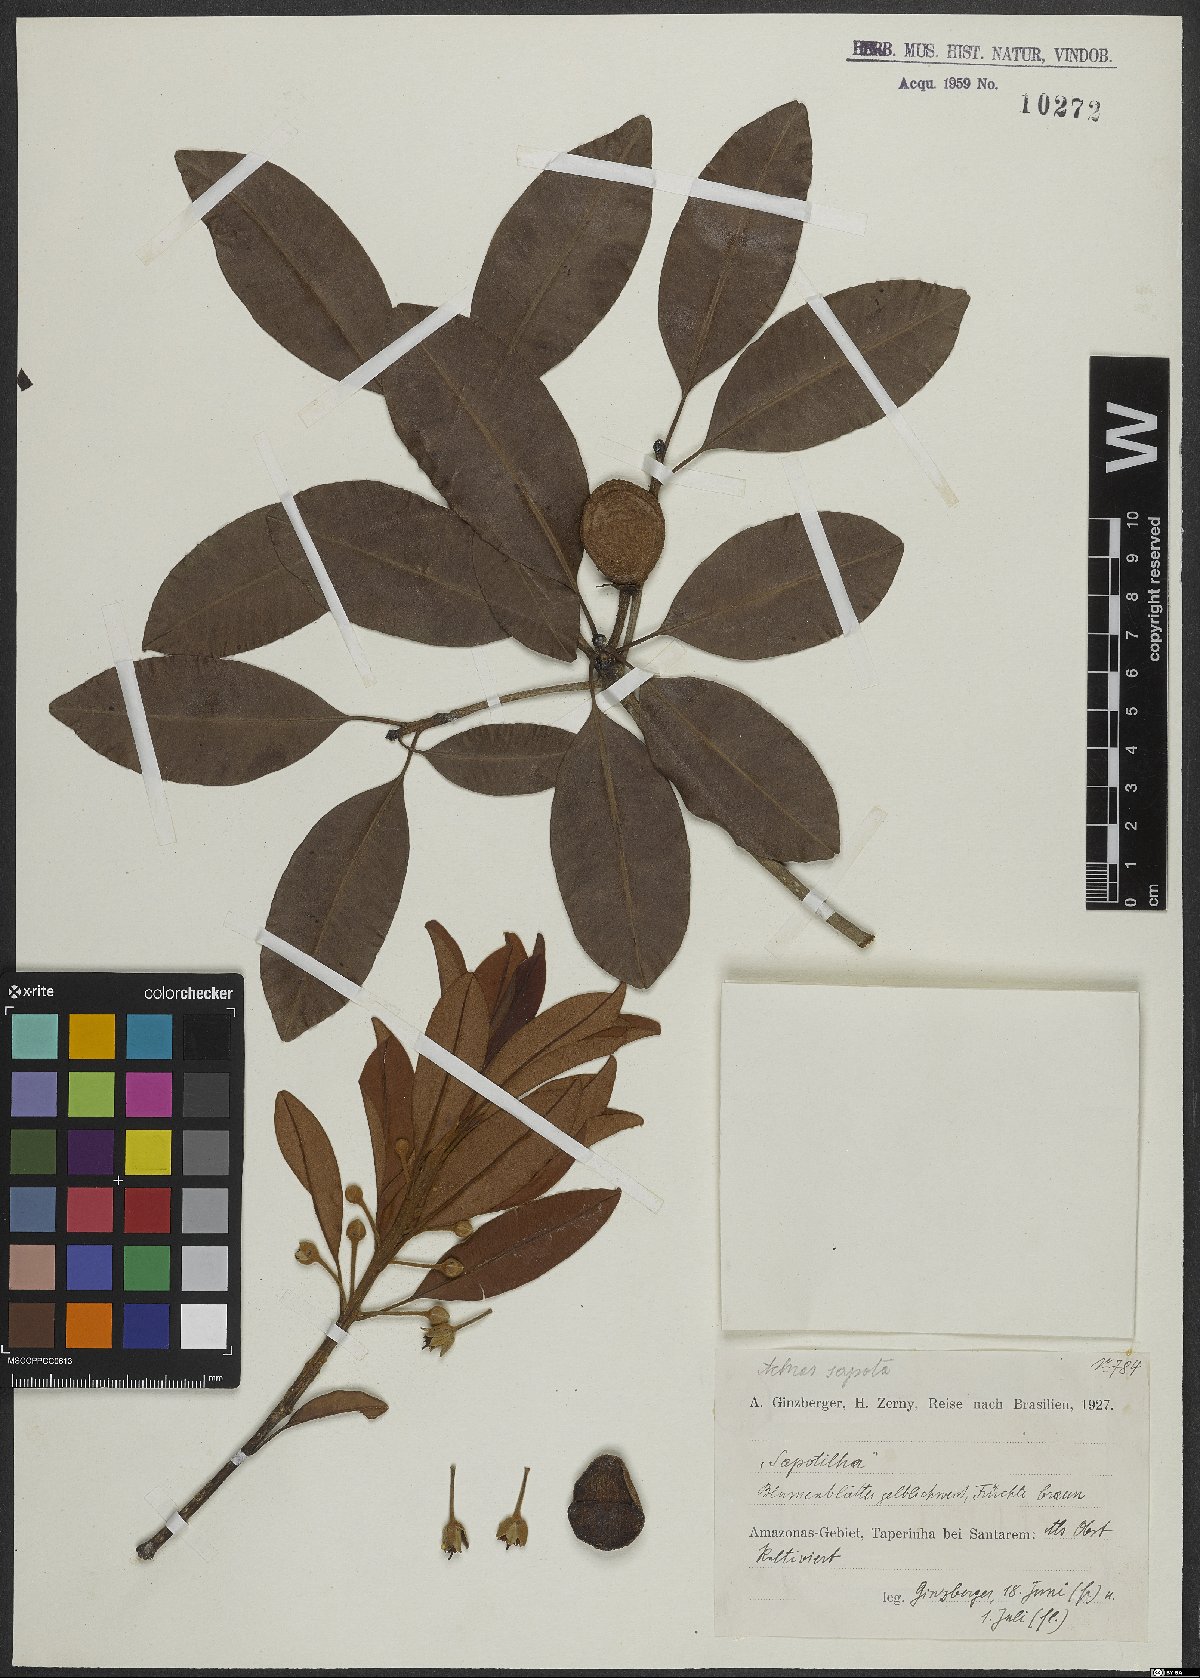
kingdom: Plantae
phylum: Tracheophyta
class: Magnoliopsida
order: Ericales
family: Sapotaceae
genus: Manilkara
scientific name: Manilkara zapota
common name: Sapodilla
